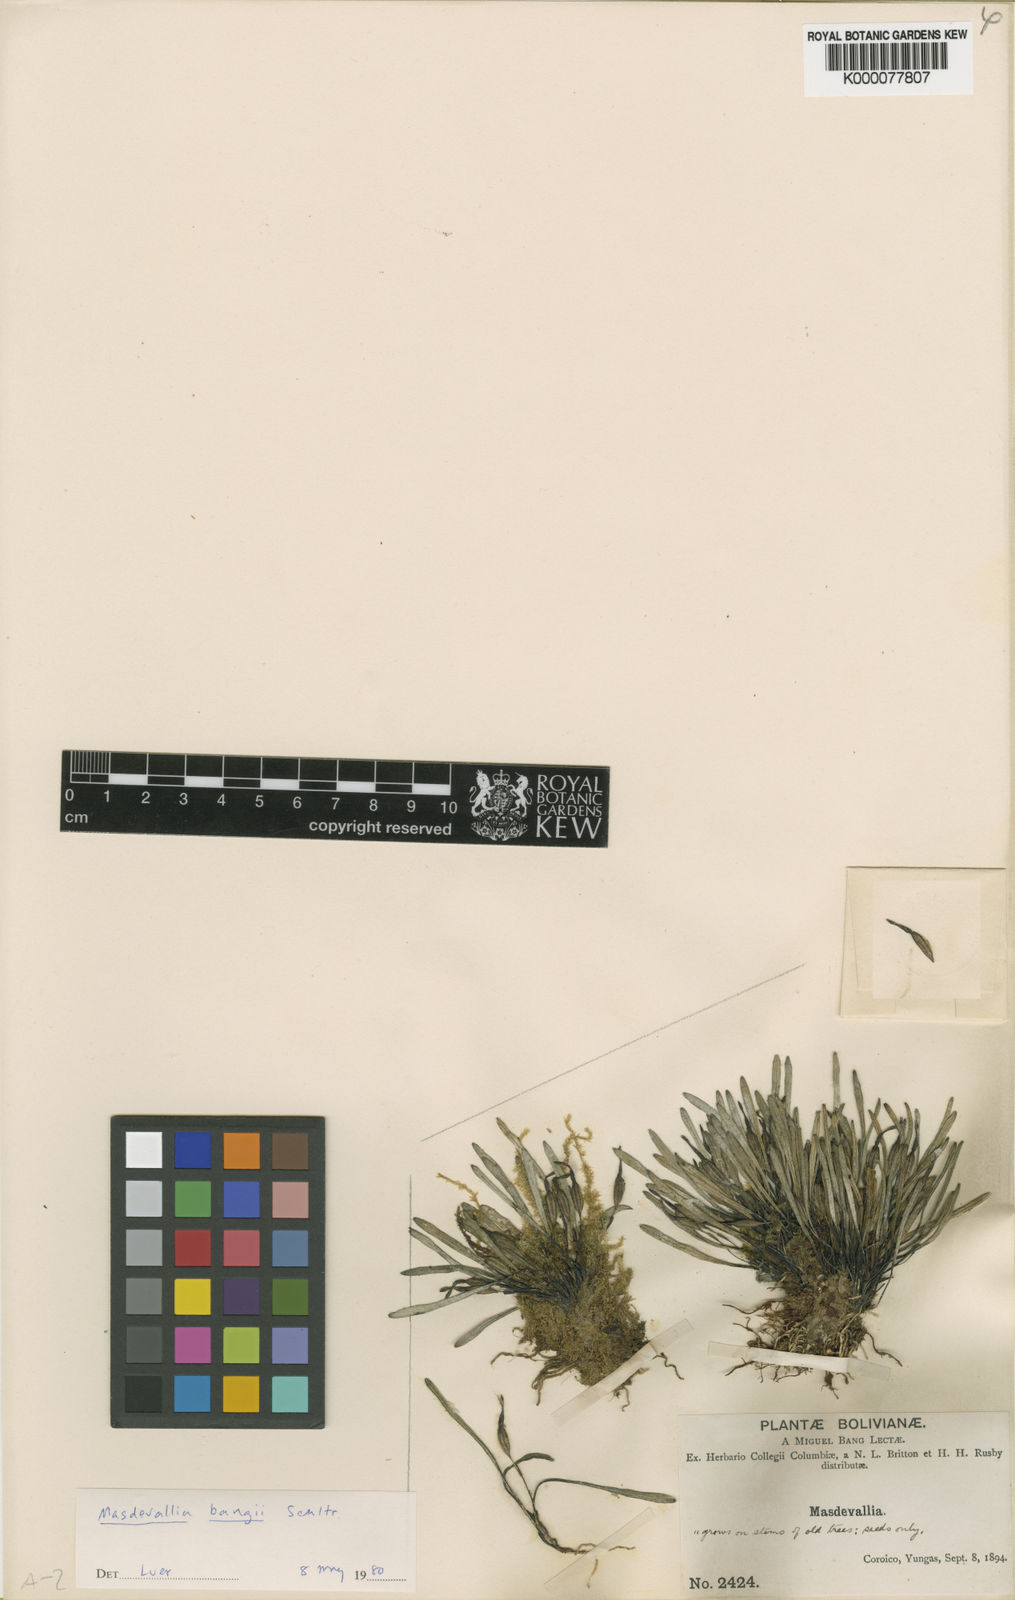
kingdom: Plantae
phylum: Tracheophyta
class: Liliopsida
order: Asparagales
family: Orchidaceae
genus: Masdevallia
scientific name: Masdevallia bangii
